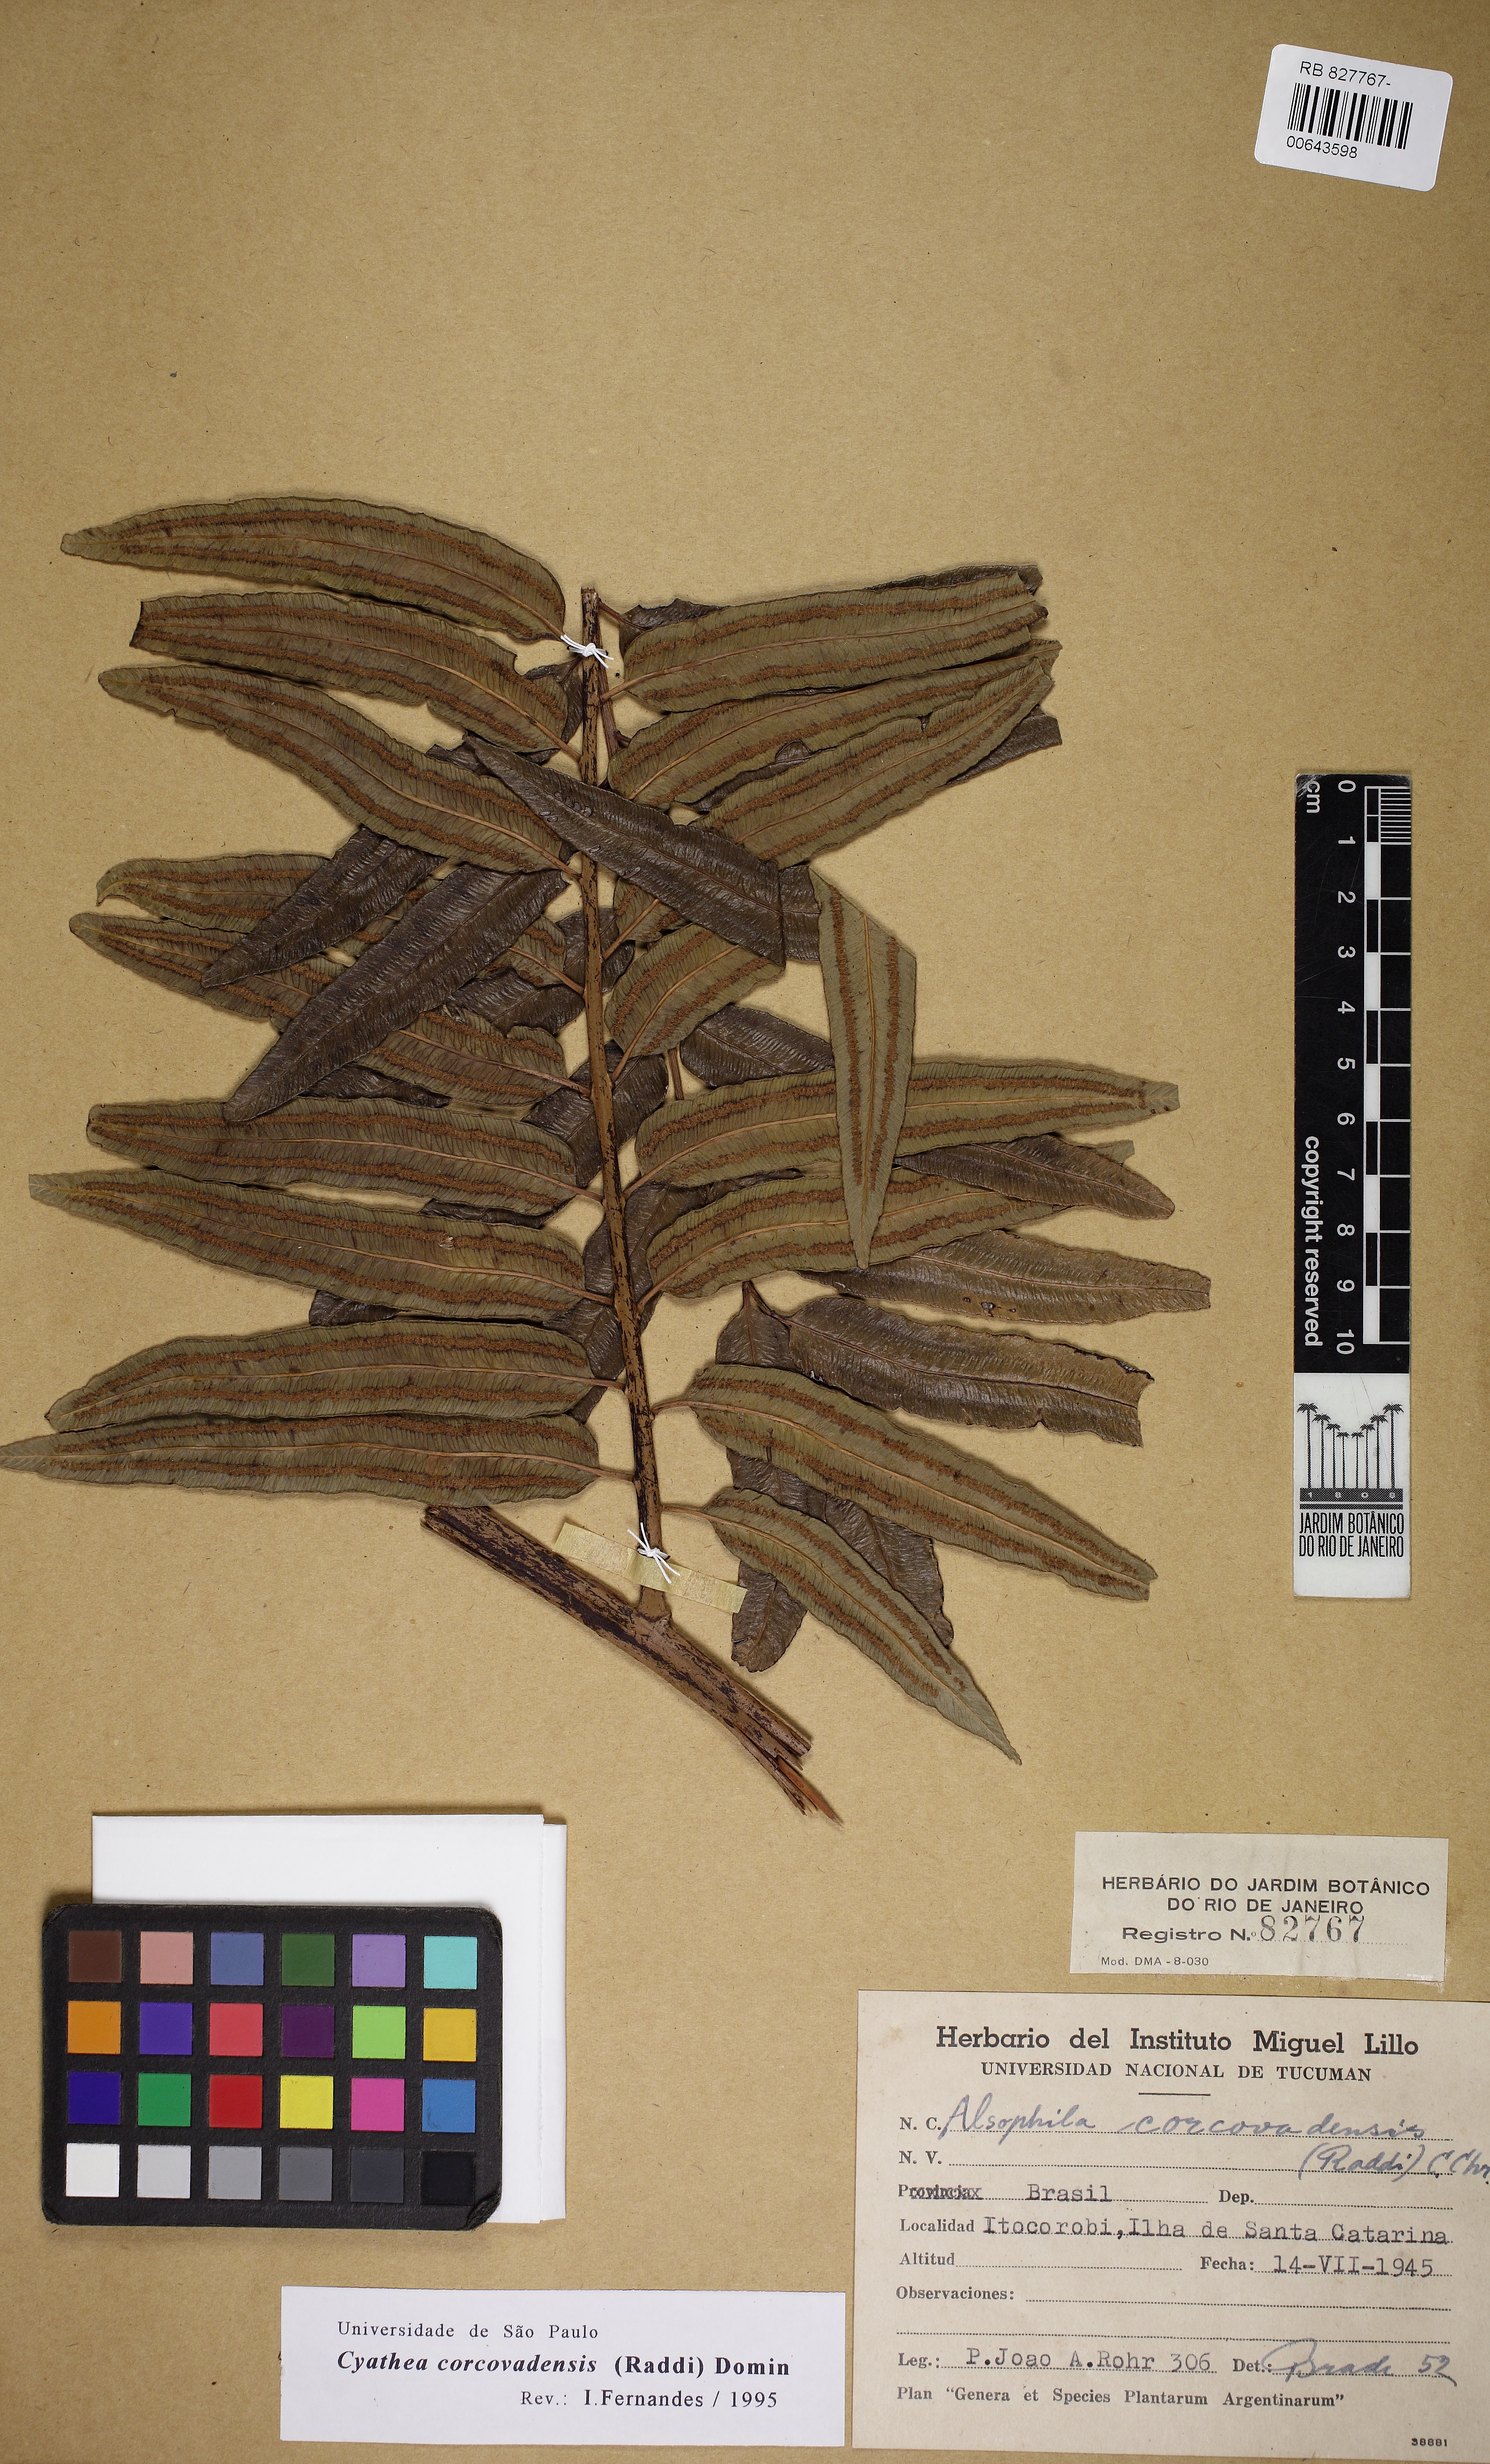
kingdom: Plantae
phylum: Tracheophyta
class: Magnoliopsida
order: Piperales
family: Piperaceae
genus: Piper
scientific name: Piper umbellatum
